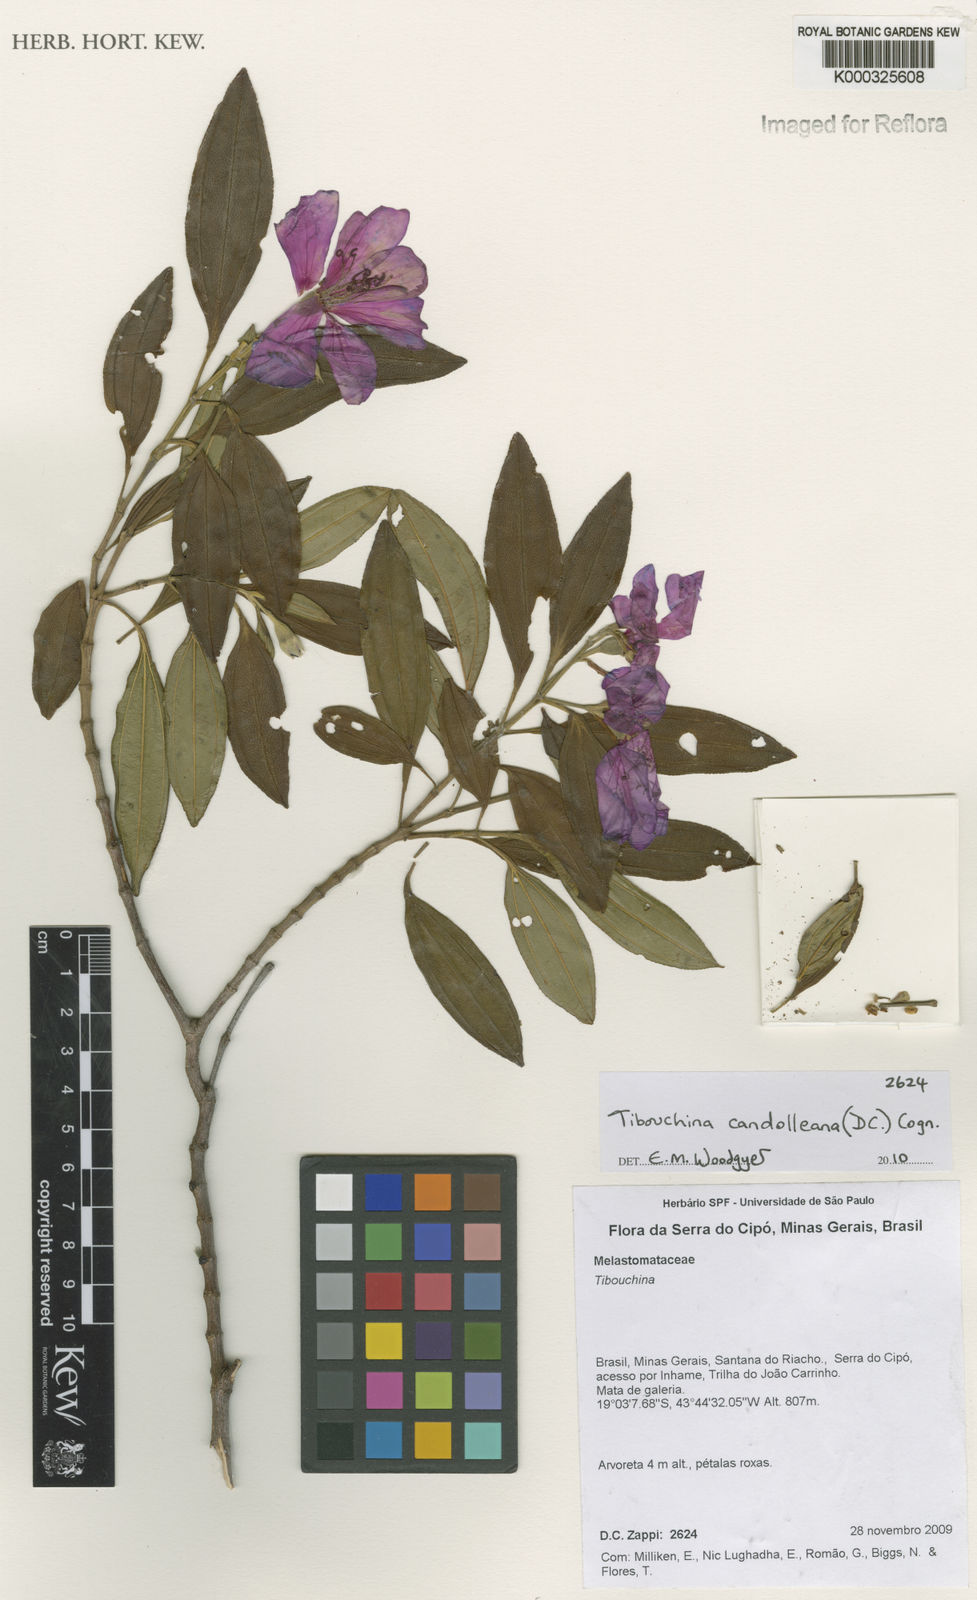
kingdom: Plantae
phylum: Tracheophyta
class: Magnoliopsida
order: Myrtales
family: Melastomataceae
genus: Pleroma
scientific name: Pleroma candolleanum
